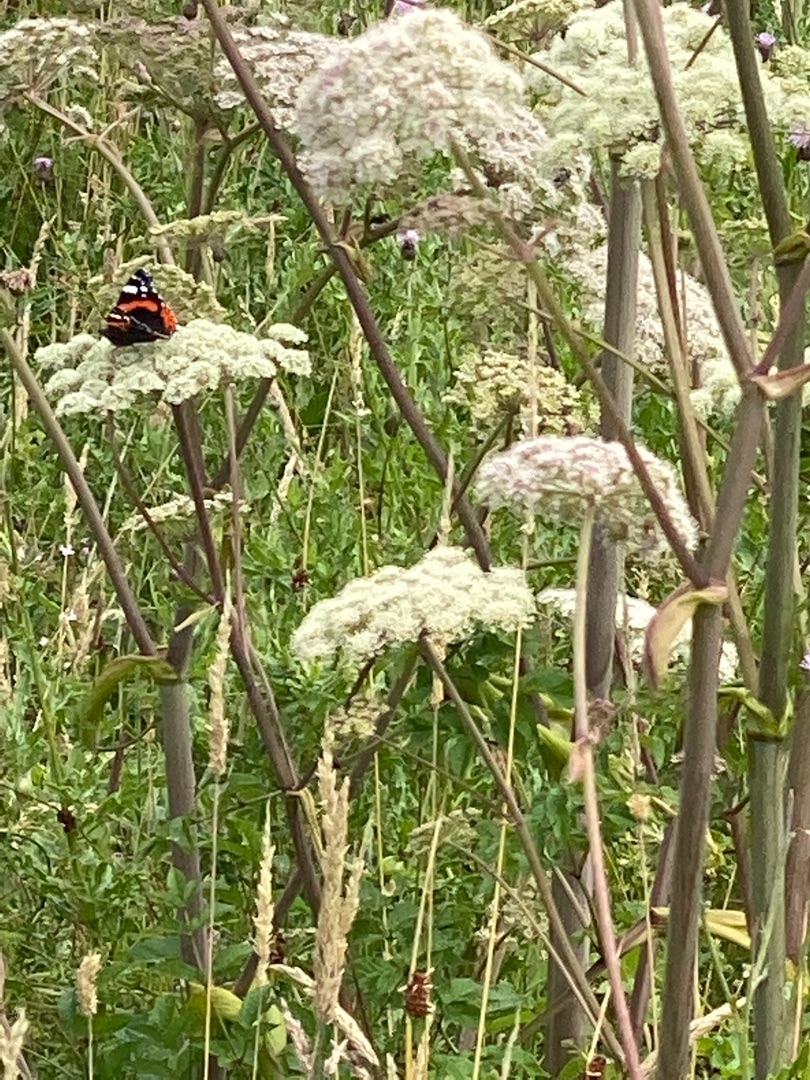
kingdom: Animalia
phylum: Arthropoda
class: Insecta
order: Lepidoptera
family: Nymphalidae
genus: Vanessa
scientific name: Vanessa atalanta
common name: Admiral
